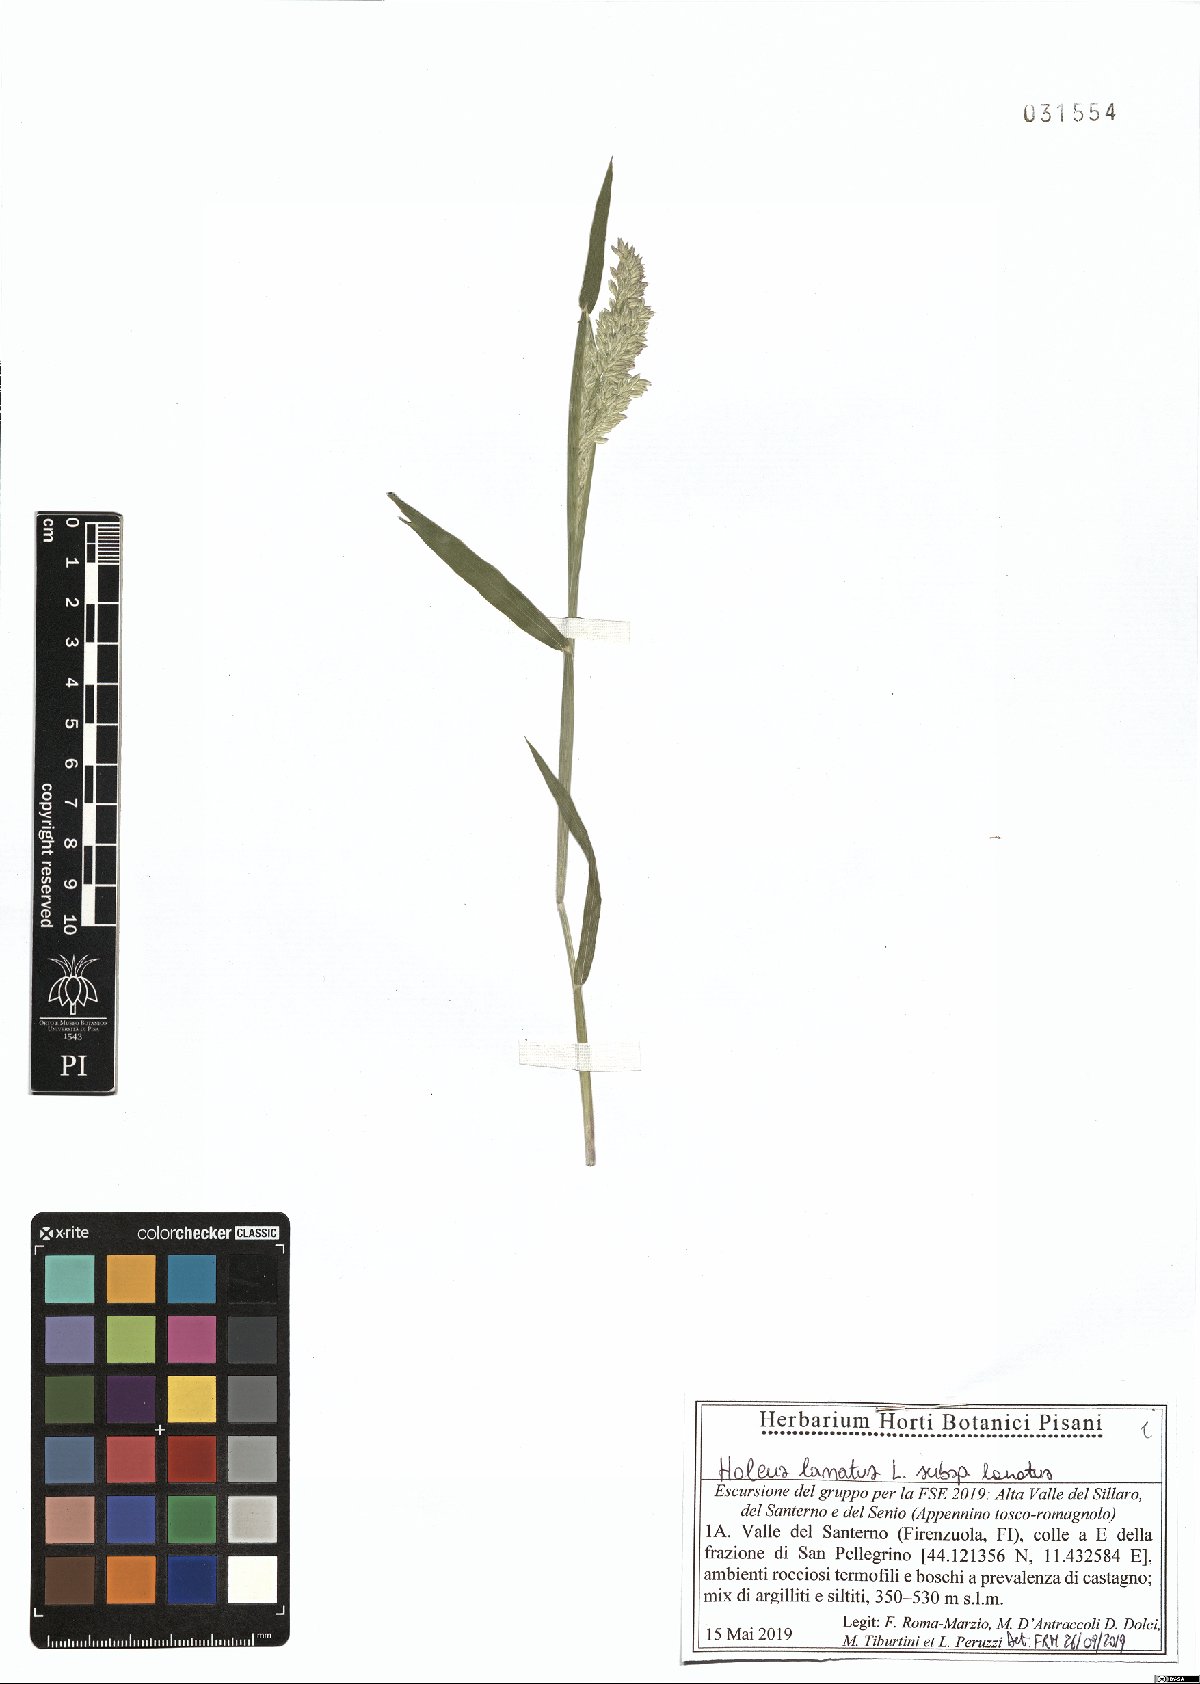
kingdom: Plantae
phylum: Tracheophyta
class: Liliopsida
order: Poales
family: Poaceae
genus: Holcus
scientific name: Holcus lanatus
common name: Yorkshire-fog
